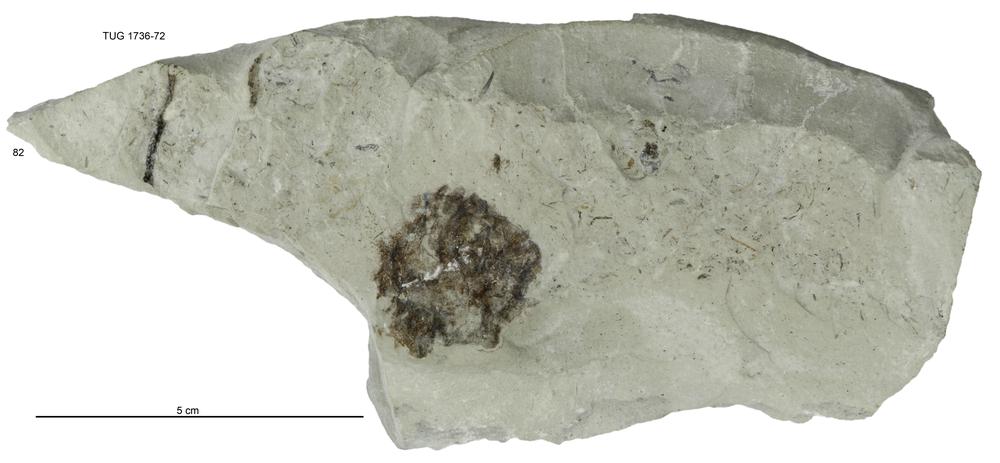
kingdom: Animalia
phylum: Echinodermata
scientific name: Echinodermata
